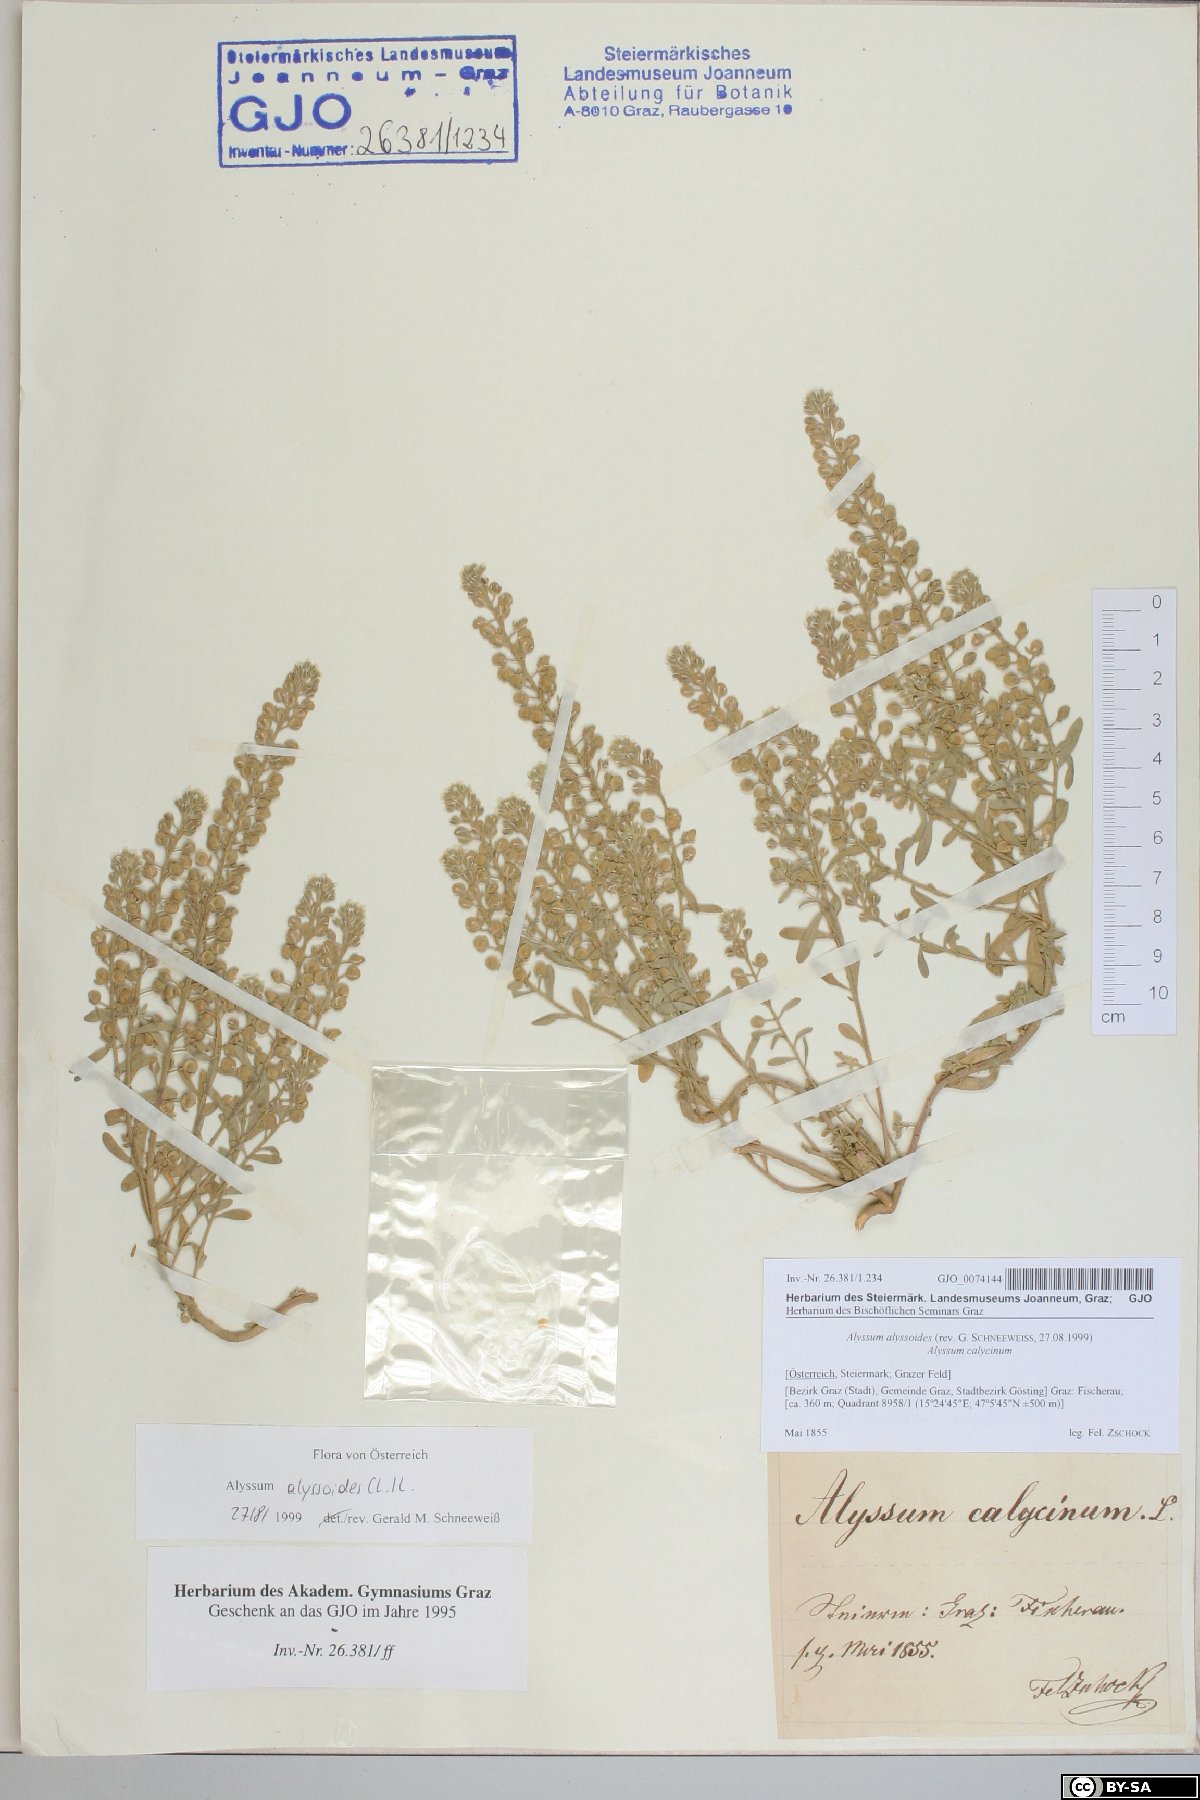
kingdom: Plantae
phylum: Tracheophyta
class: Magnoliopsida
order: Brassicales
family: Brassicaceae
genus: Alyssum
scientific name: Alyssum alyssoides
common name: Small alison
